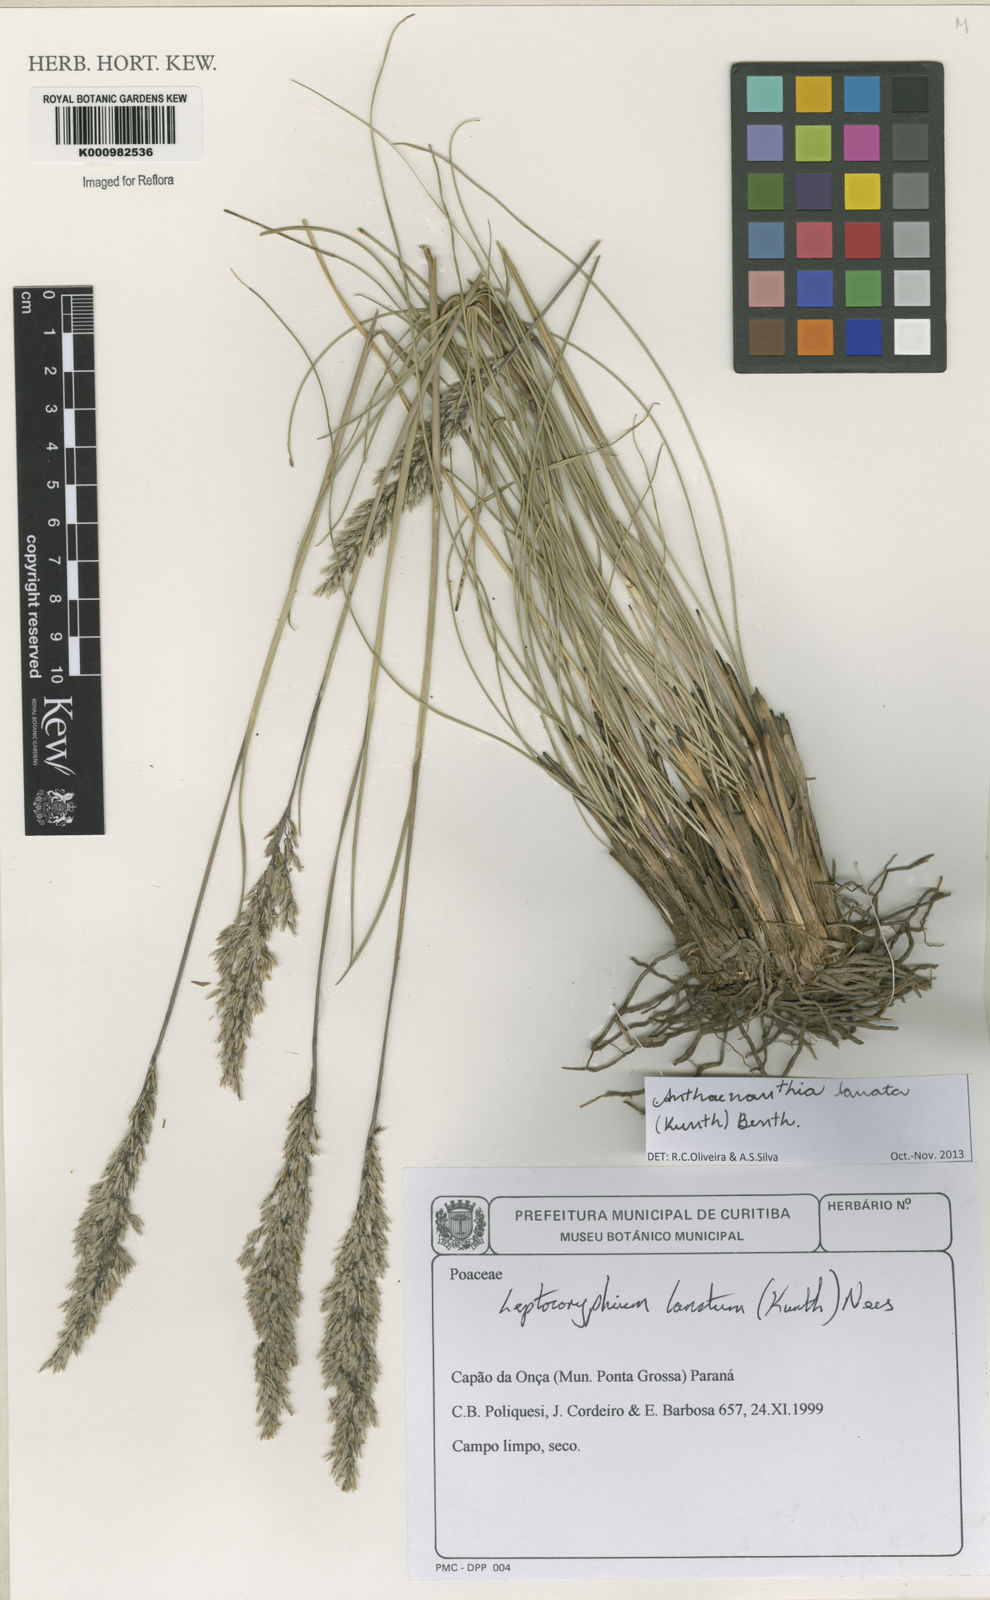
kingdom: Plantae
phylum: Tracheophyta
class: Liliopsida
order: Poales
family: Poaceae
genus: Anthenantia
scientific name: Anthenantia lanata
